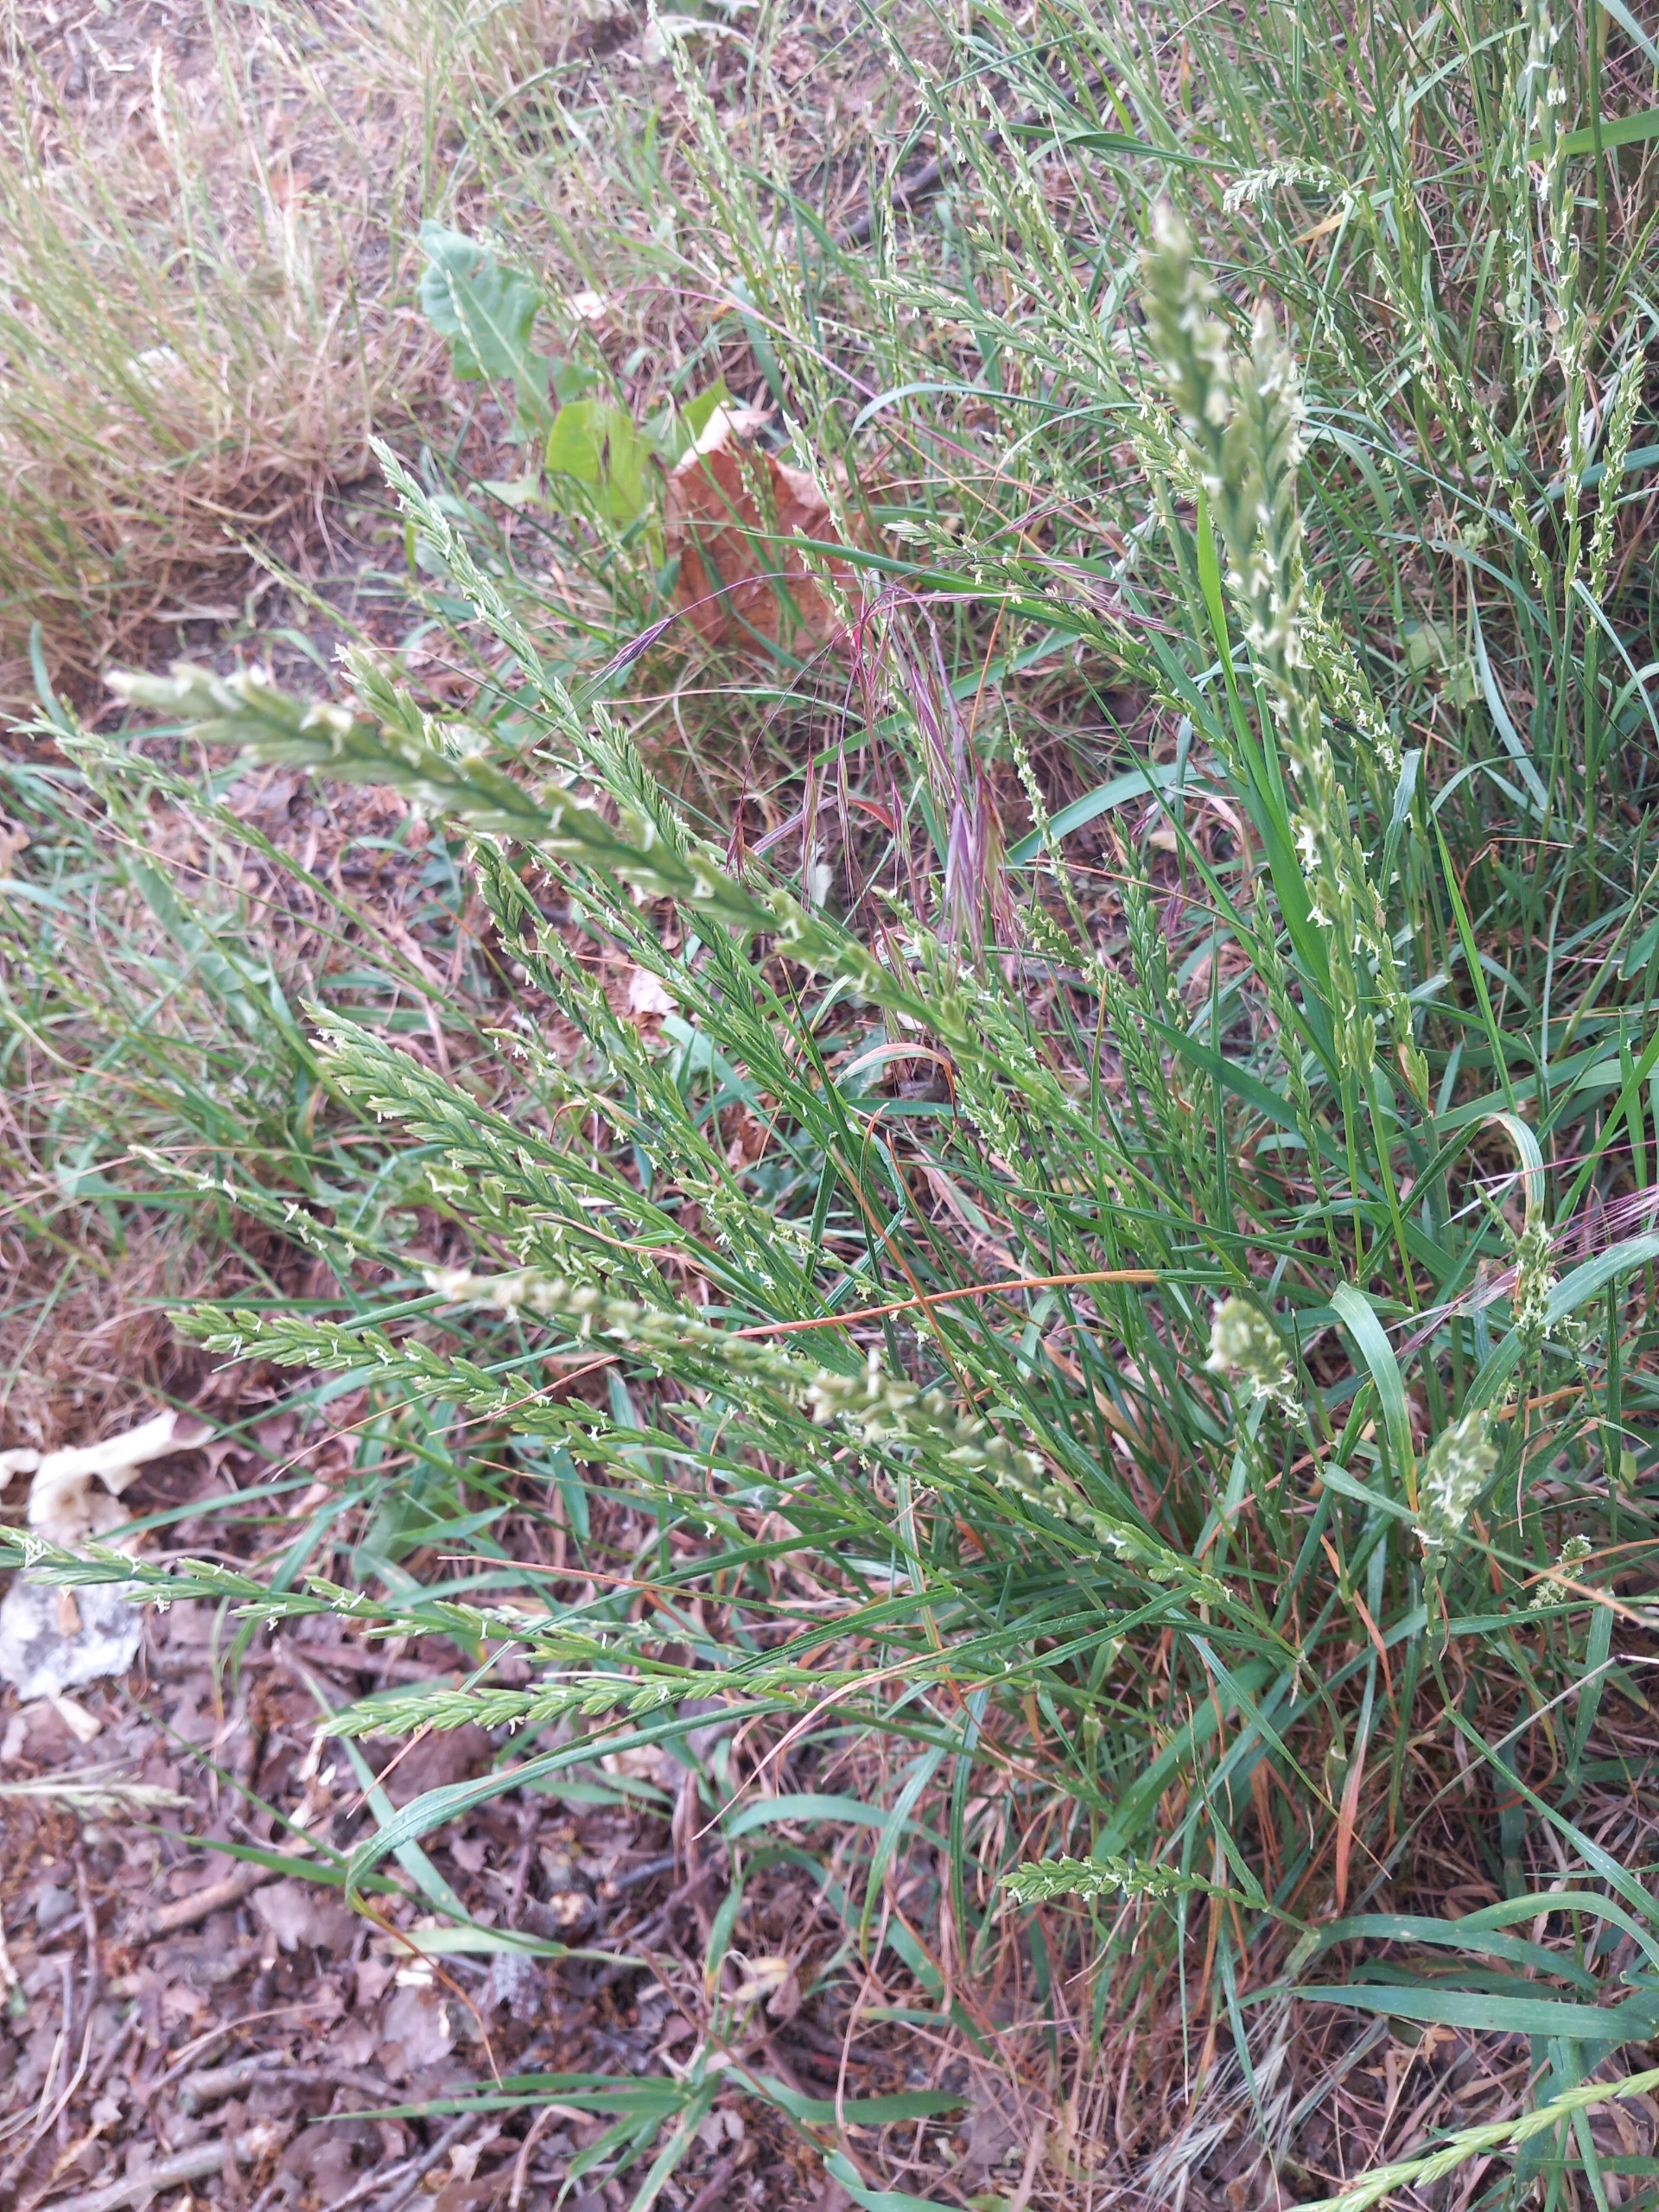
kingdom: Plantae
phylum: Tracheophyta
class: Liliopsida
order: Poales
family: Poaceae
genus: Lolium
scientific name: Lolium perenne
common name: Almindelig rajgræs
